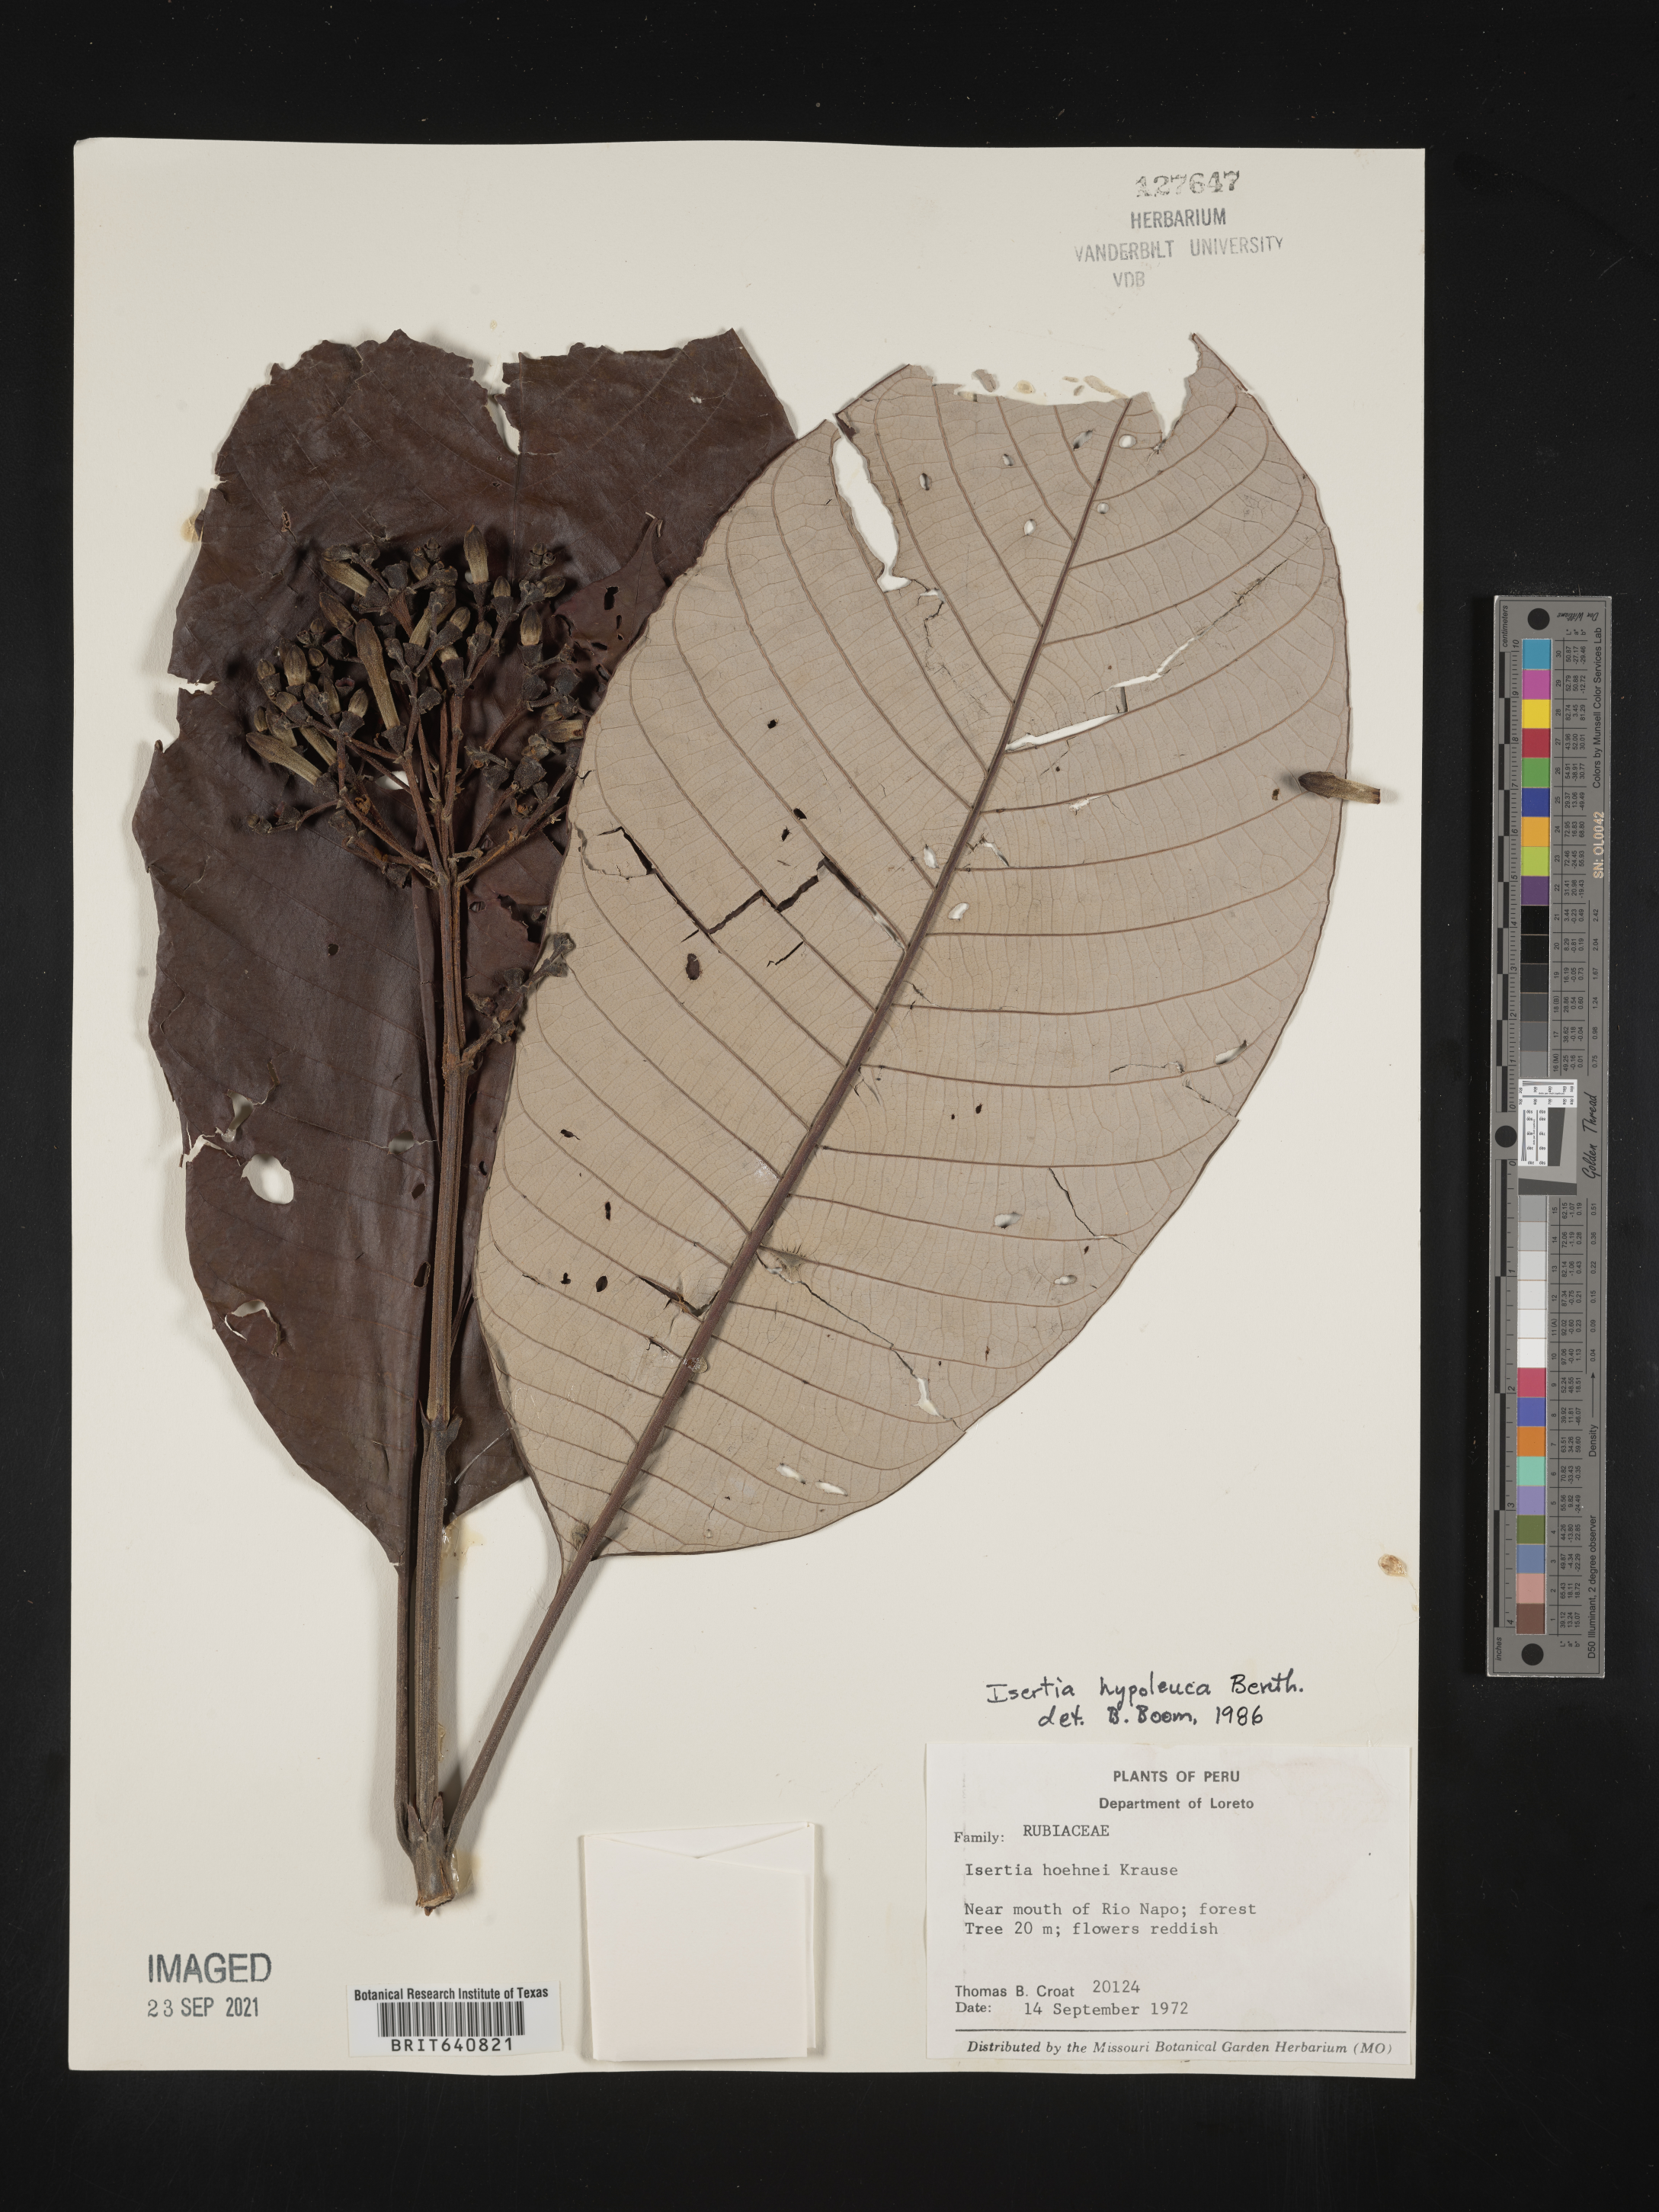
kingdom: Plantae
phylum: Tracheophyta
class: Magnoliopsida
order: Gentianales
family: Rubiaceae
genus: Isertia
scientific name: Isertia
